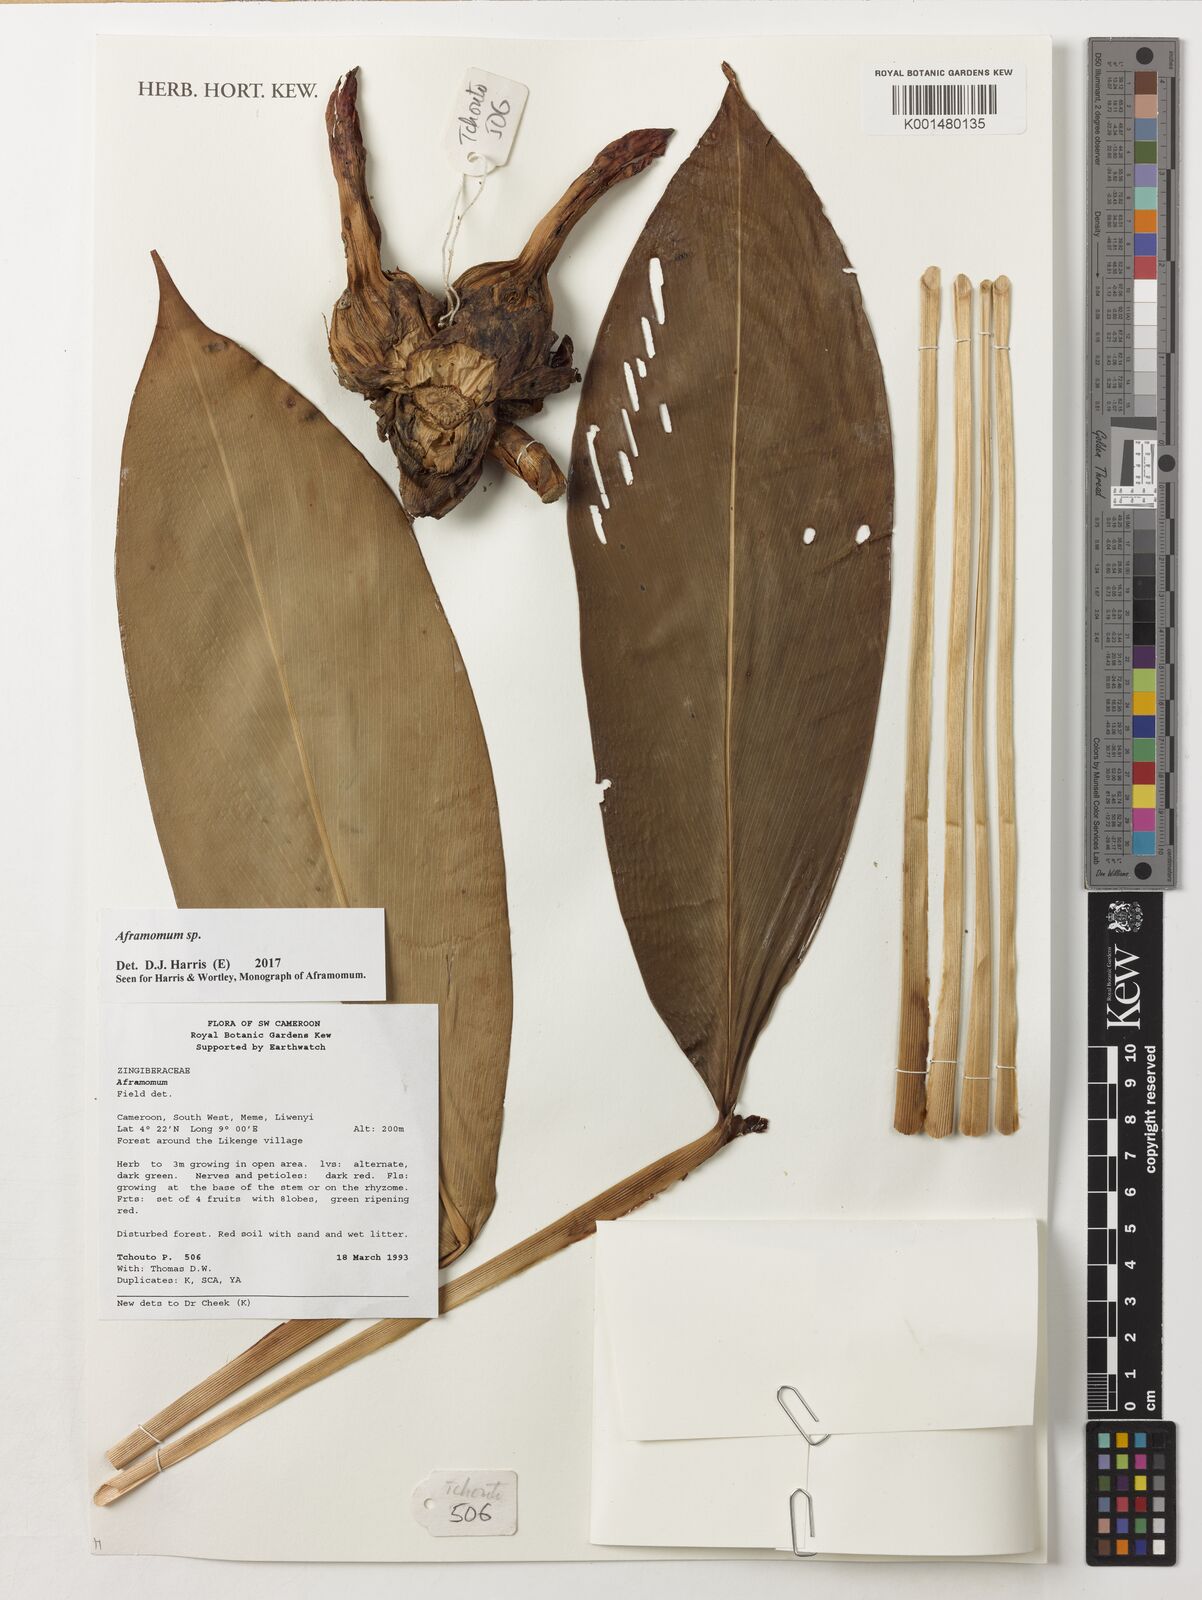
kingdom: Plantae
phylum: Tracheophyta
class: Liliopsida
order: Zingiberales
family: Zingiberaceae
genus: Aframomum
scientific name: Aframomum
